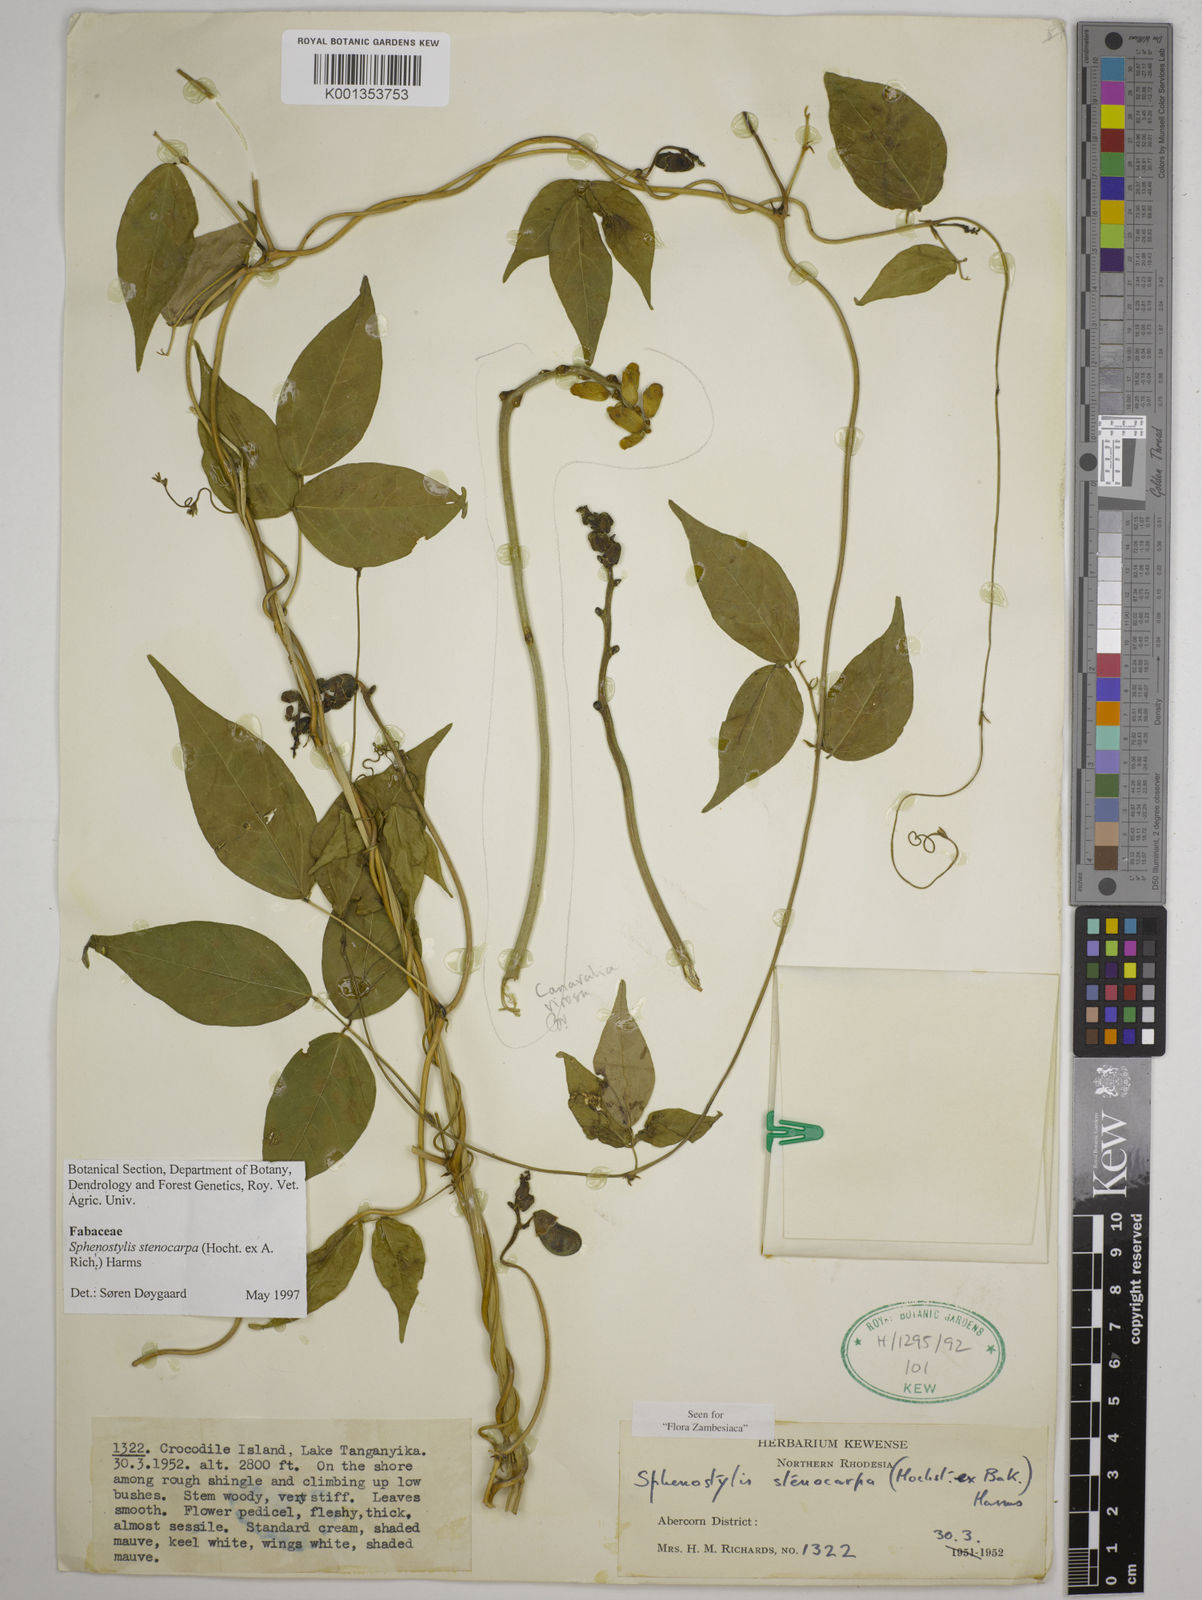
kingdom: Plantae
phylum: Tracheophyta
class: Magnoliopsida
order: Fabales
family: Fabaceae
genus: Sphenostylis
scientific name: Sphenostylis stenocarpa
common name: Yam-pea
